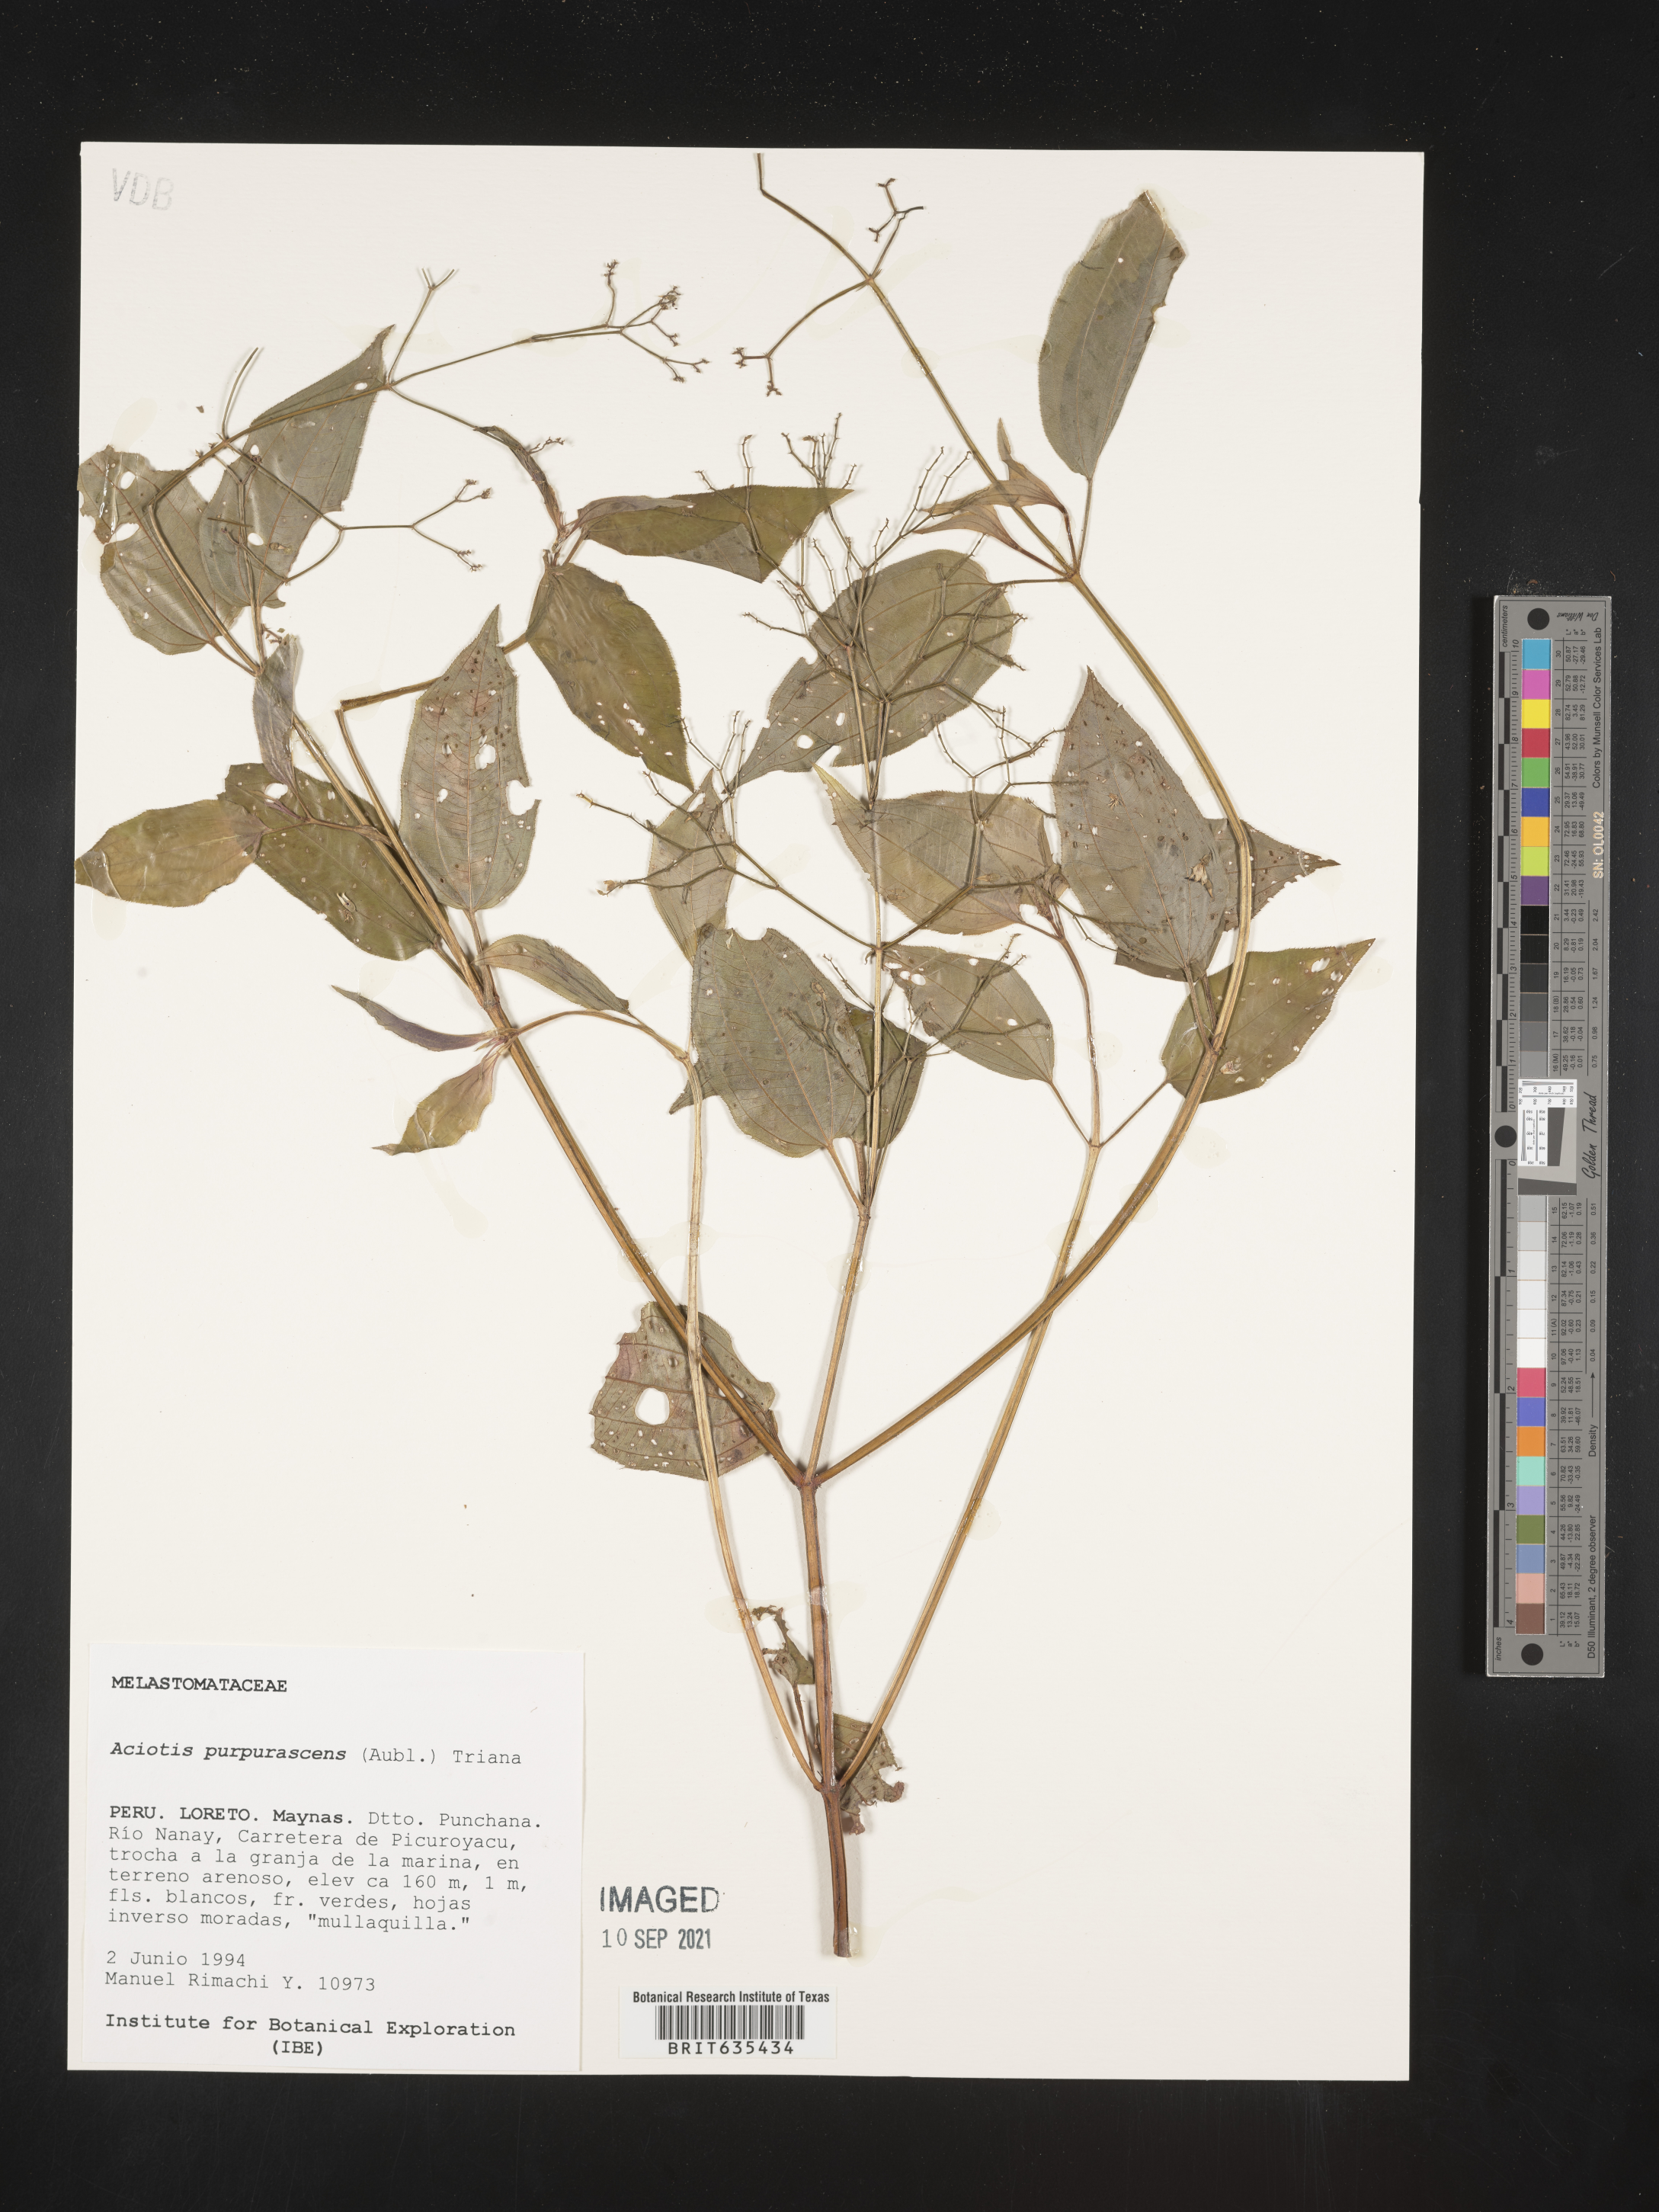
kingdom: Plantae
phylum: Tracheophyta
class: Magnoliopsida
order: Myrtales
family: Melastomataceae
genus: Aciotis
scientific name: Aciotis
